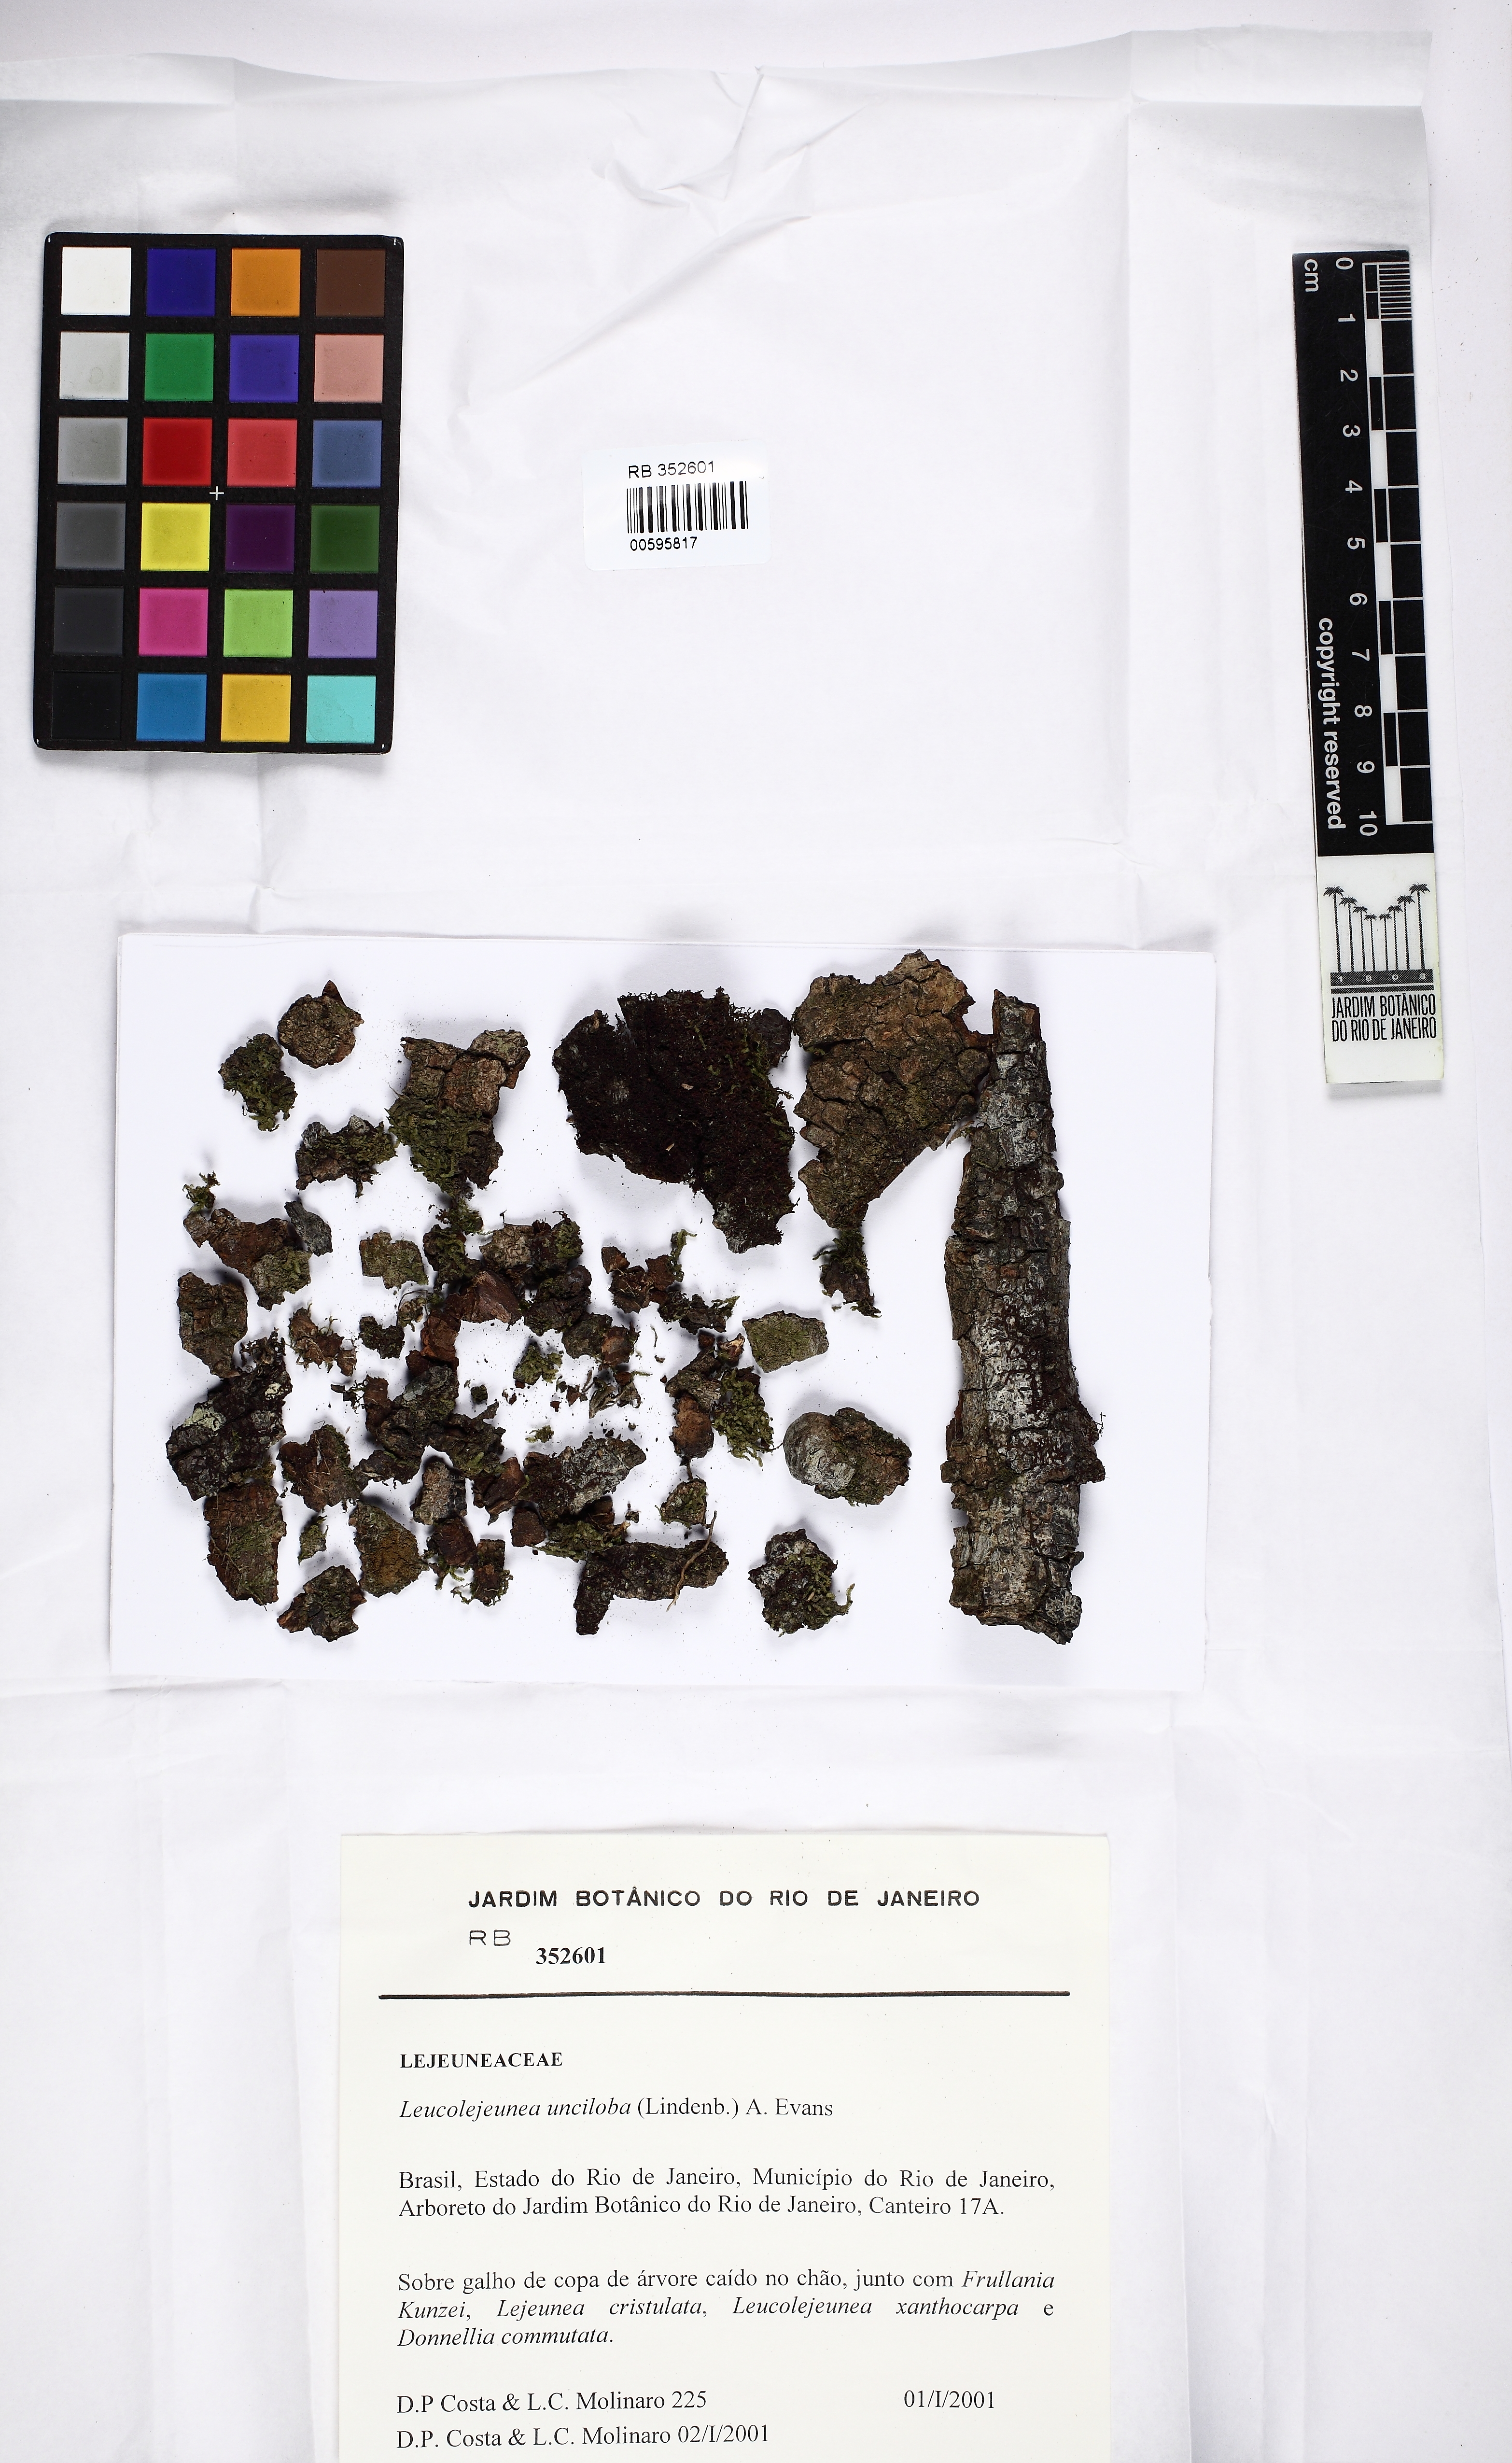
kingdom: Plantae
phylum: Marchantiophyta
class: Jungermanniopsida
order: Porellales
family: Lejeuneaceae
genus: Cheilolejeunea
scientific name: Cheilolejeunea unciloba
